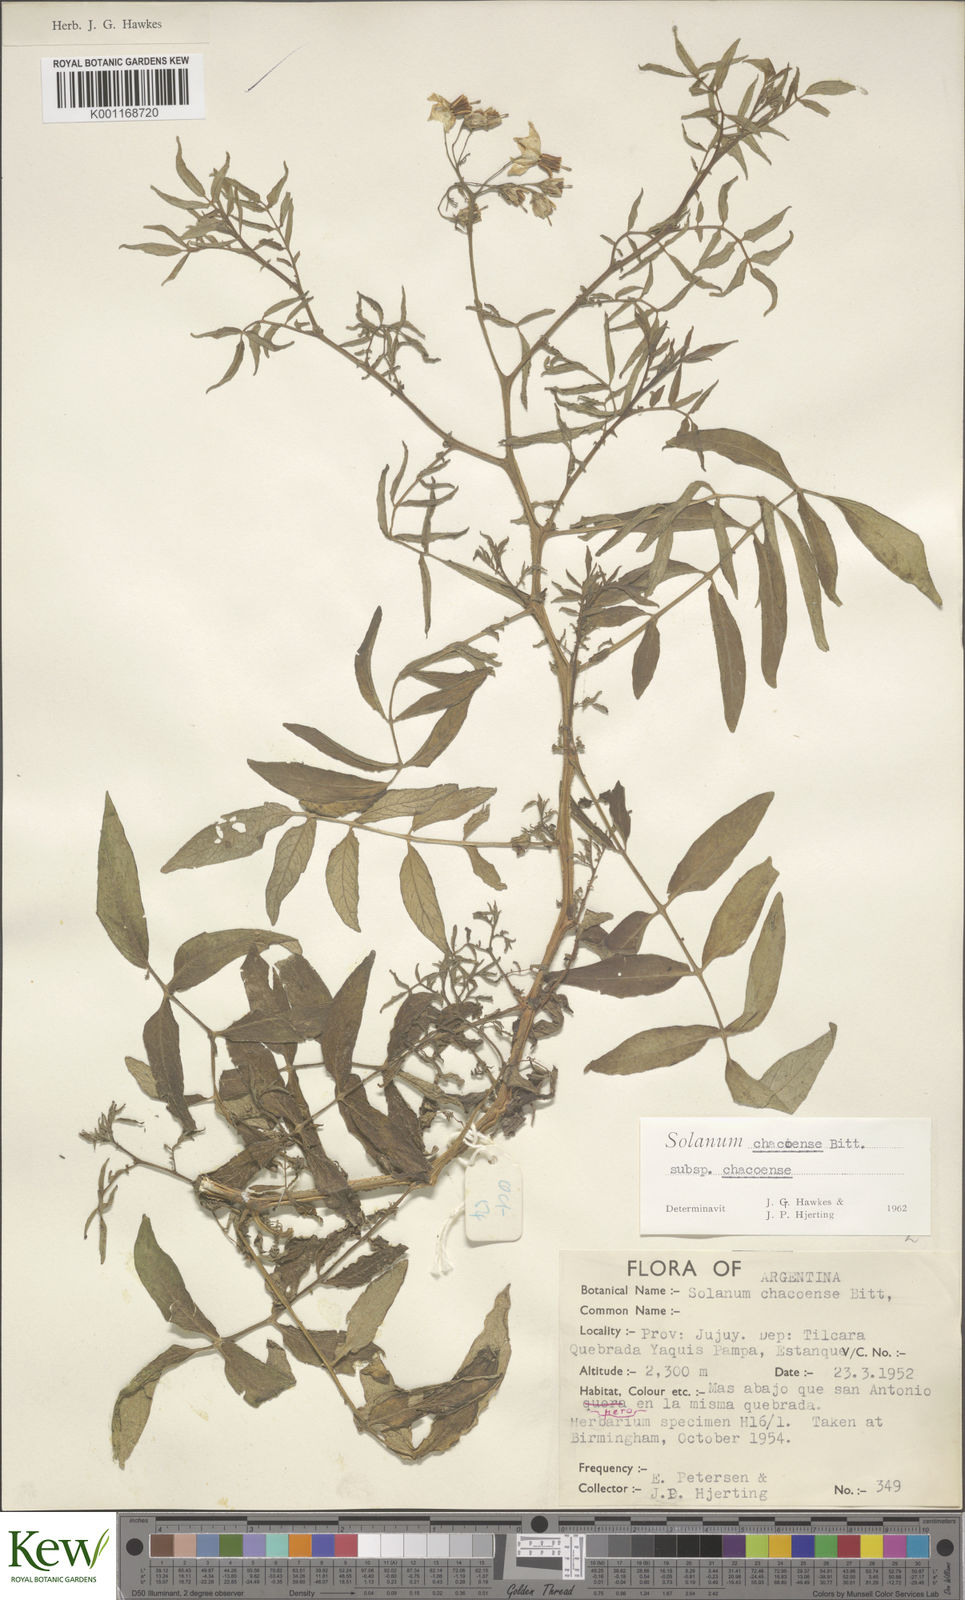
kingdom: Plantae
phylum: Tracheophyta
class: Magnoliopsida
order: Solanales
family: Solanaceae
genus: Solanum
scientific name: Solanum chacoense
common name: Chaco potato
